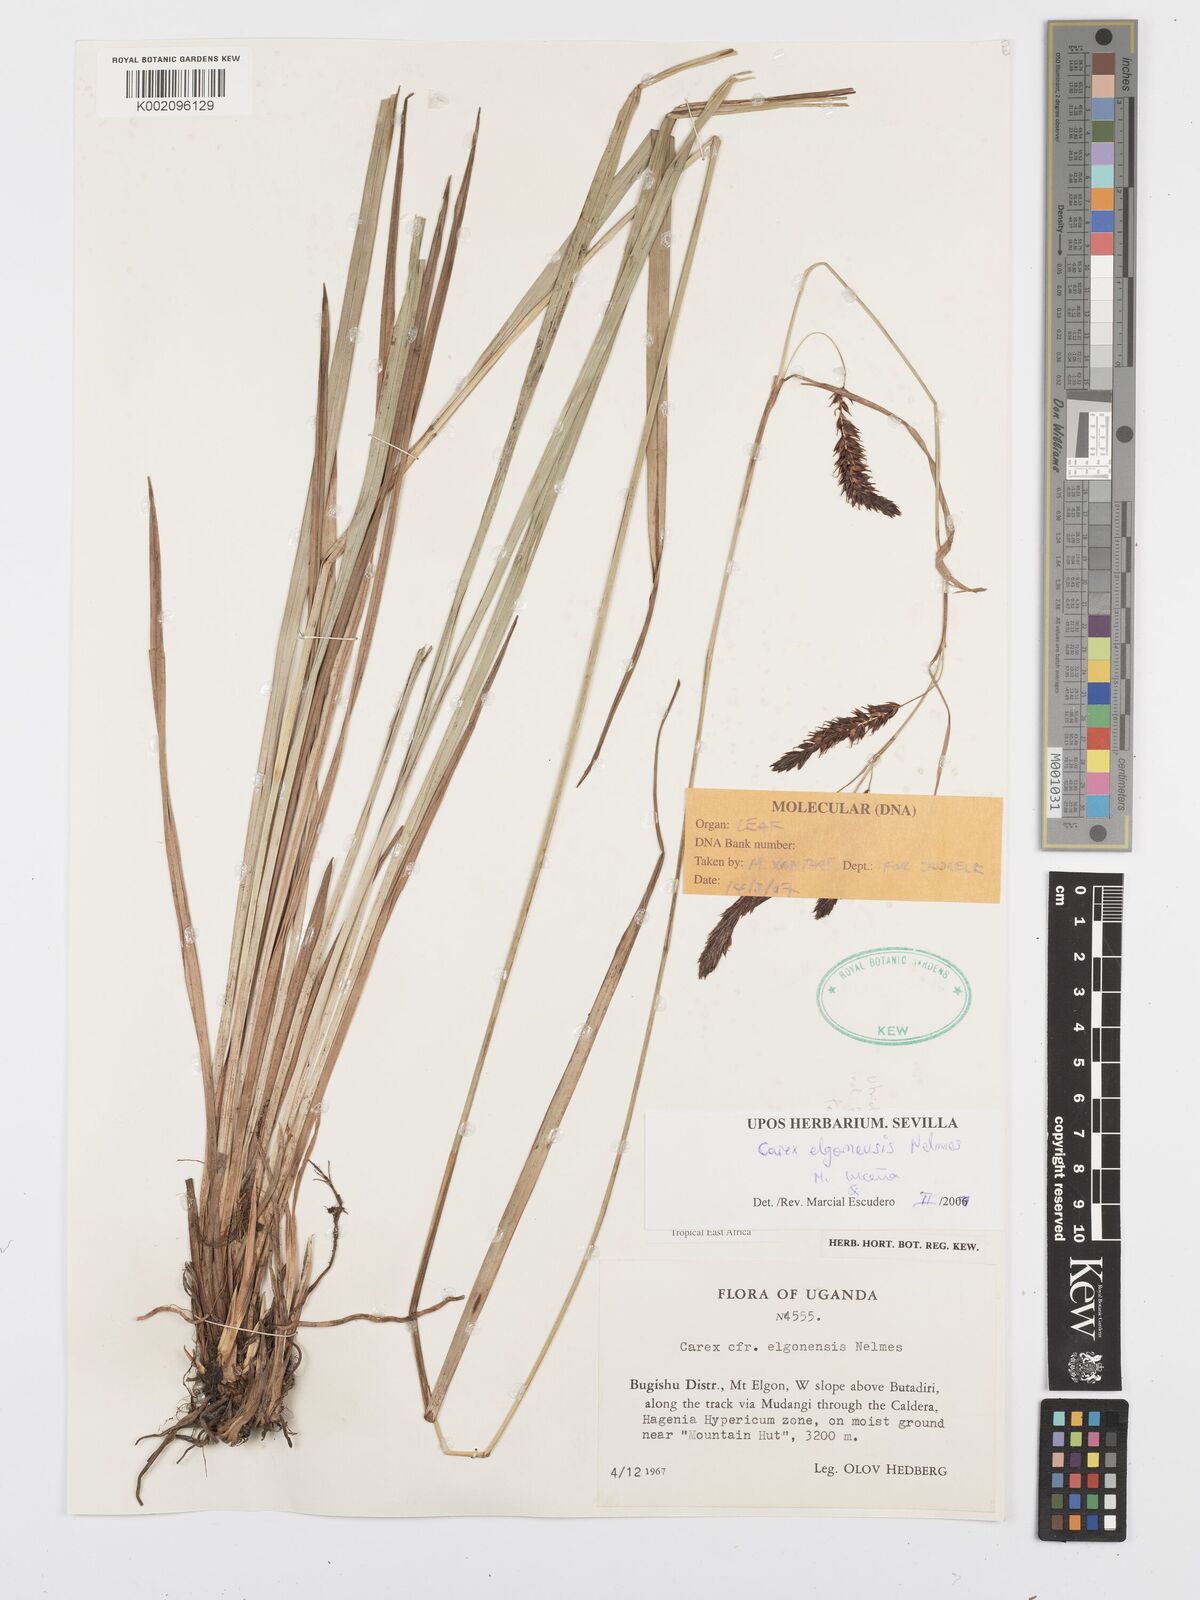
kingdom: Plantae
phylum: Tracheophyta
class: Liliopsida
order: Poales
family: Cyperaceae
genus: Carex
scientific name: Carex elgonensis
